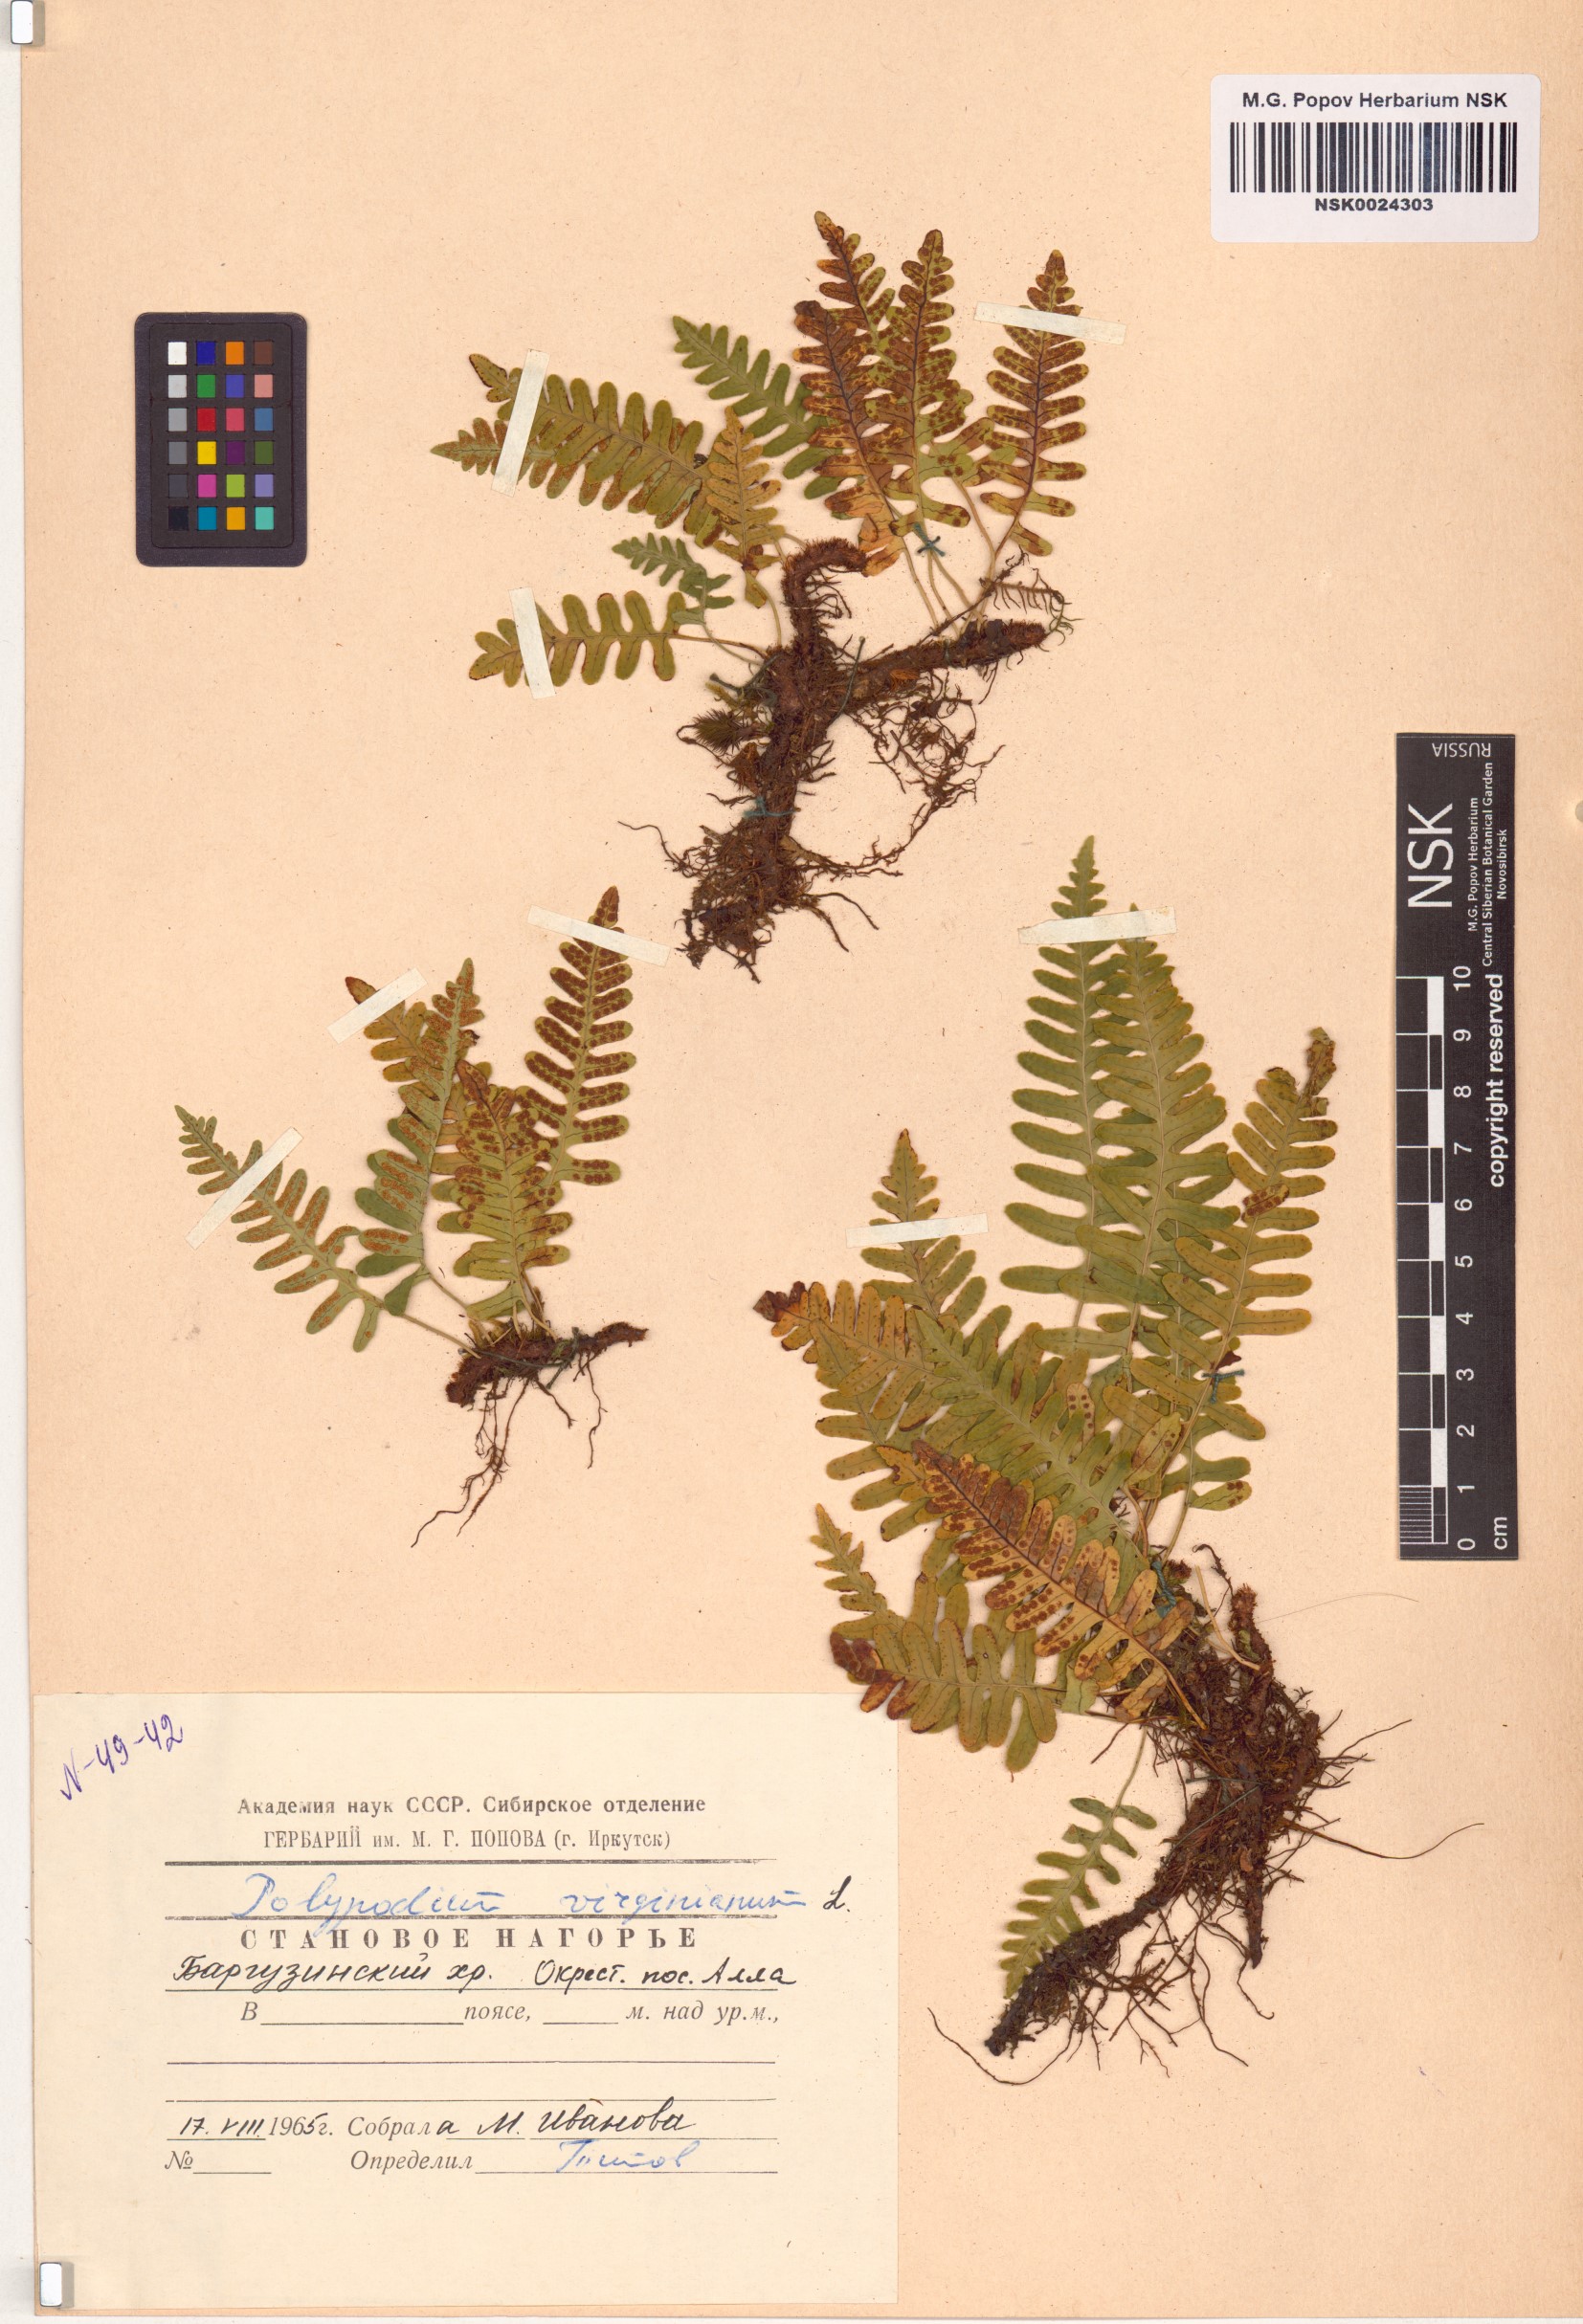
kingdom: Plantae
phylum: Tracheophyta
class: Polypodiopsida
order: Polypodiales
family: Polypodiaceae
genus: Polypodium
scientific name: Polypodium virginianum
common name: American wall fern
